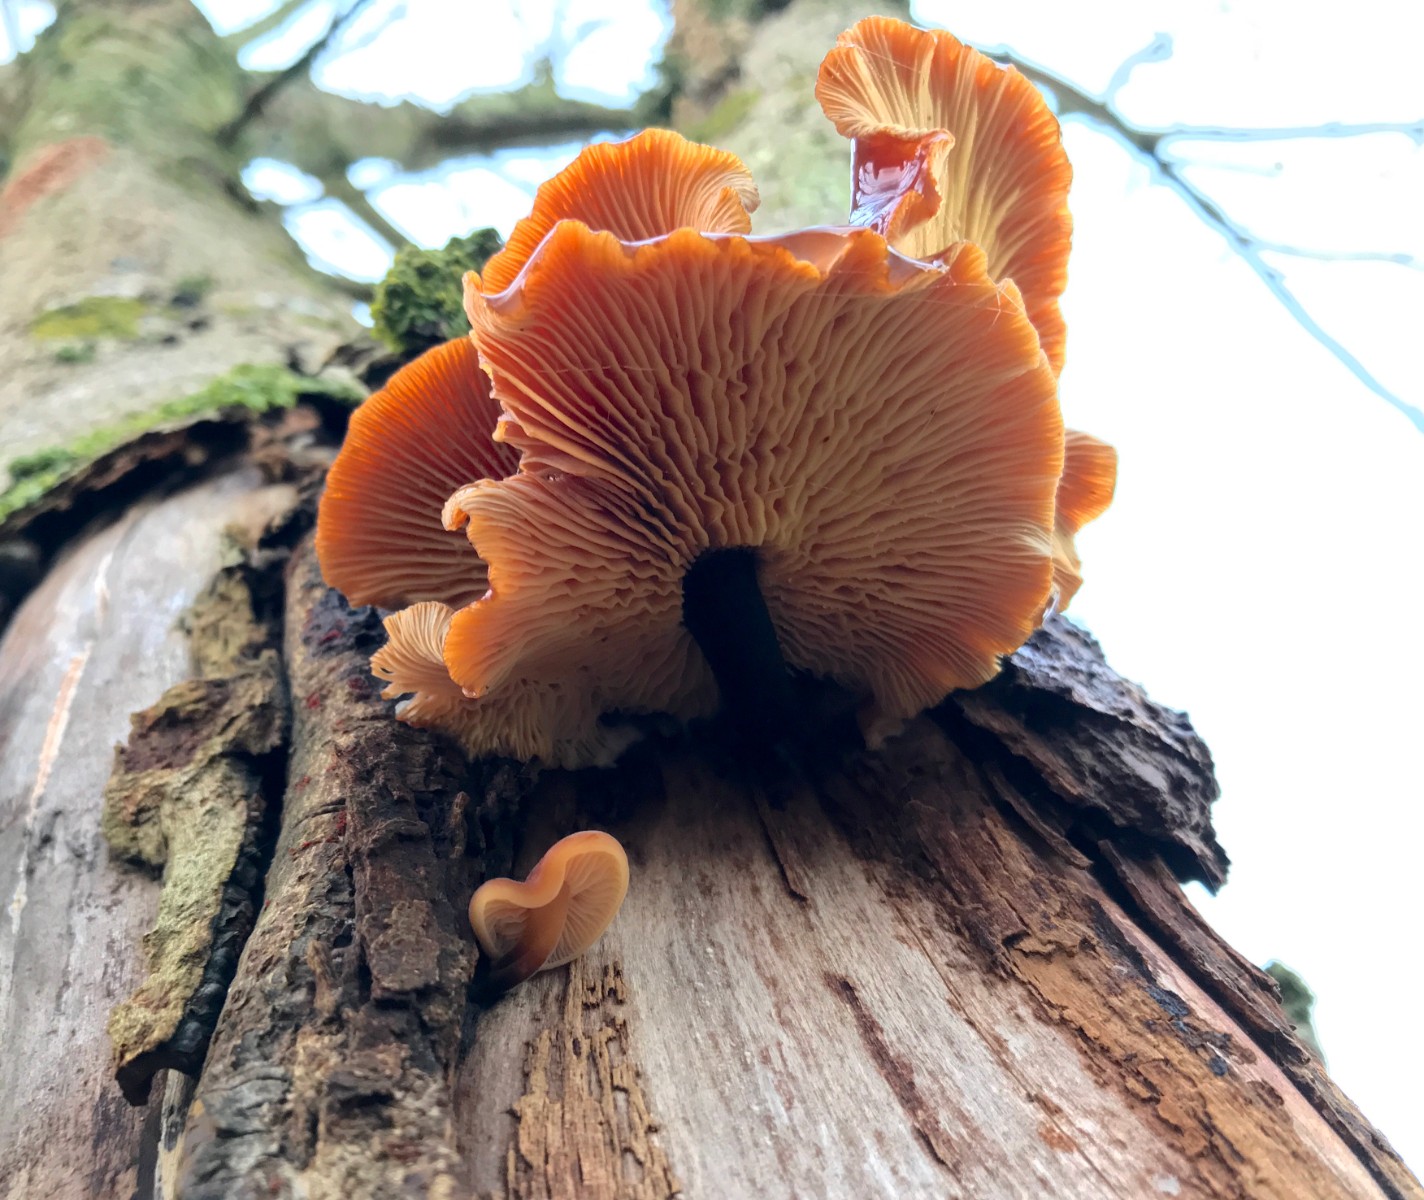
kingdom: Fungi
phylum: Basidiomycota
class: Agaricomycetes
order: Agaricales
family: Physalacriaceae
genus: Flammulina
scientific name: Flammulina
